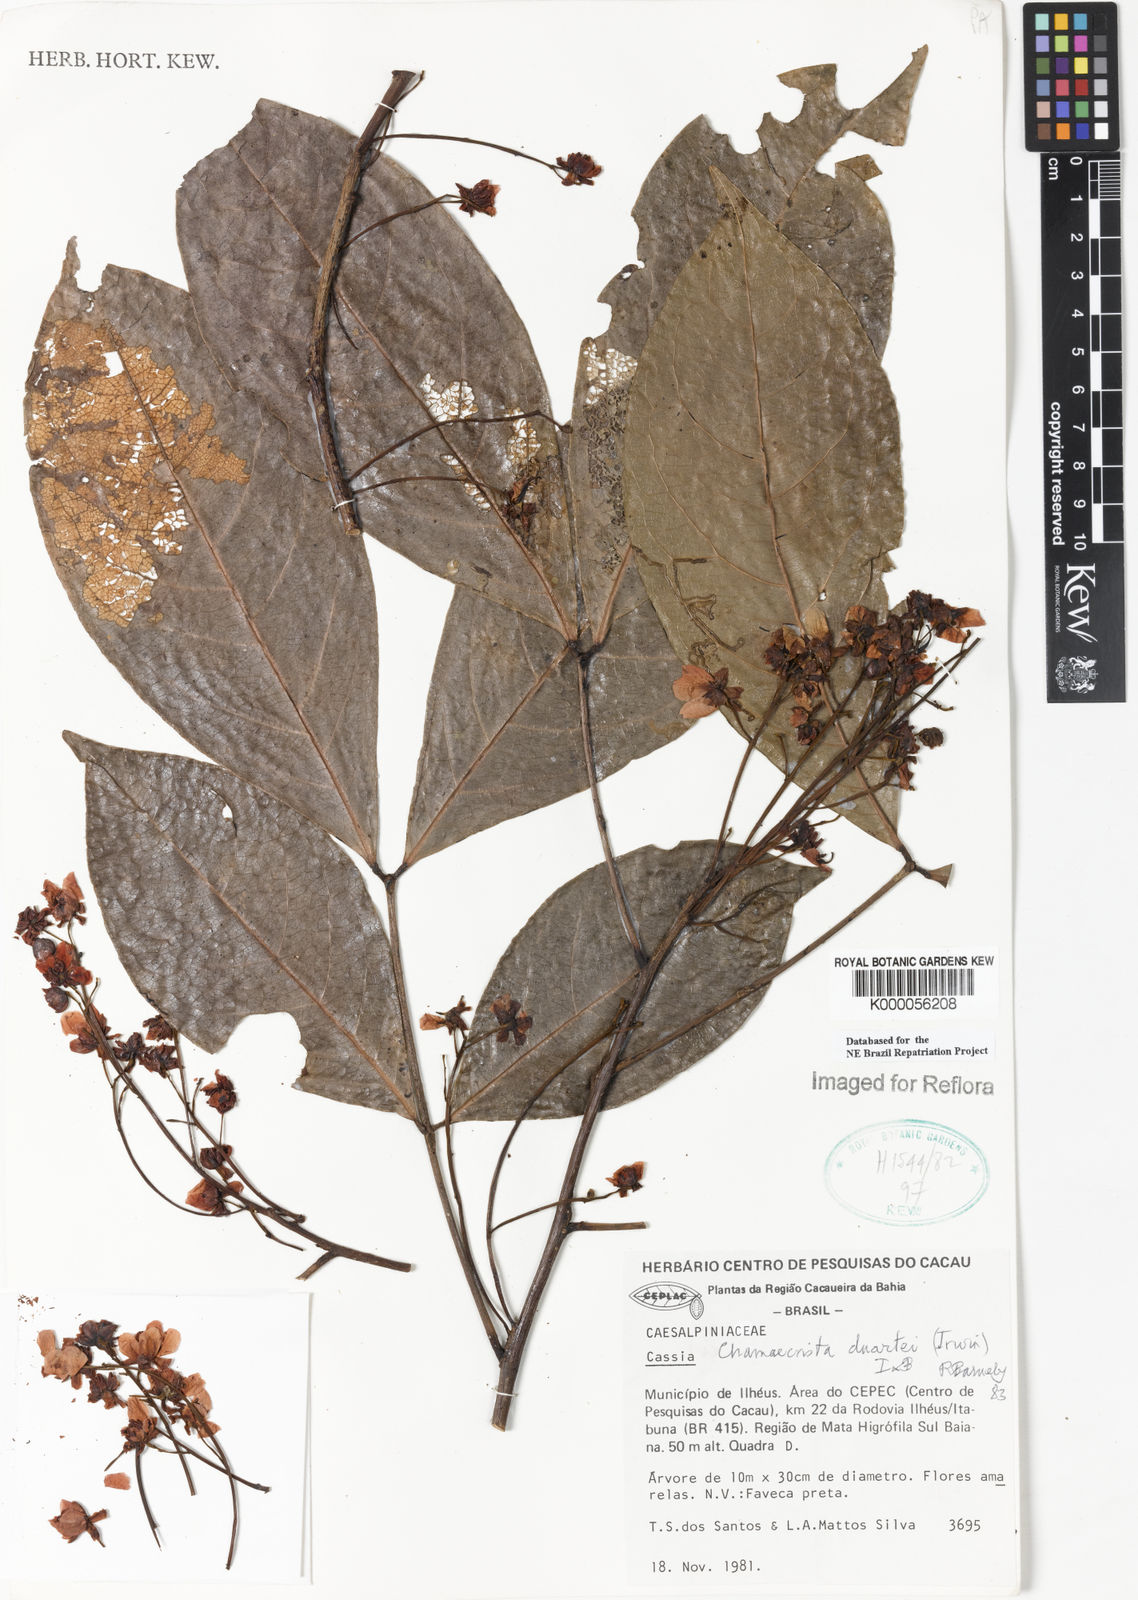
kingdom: Plantae
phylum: Tracheophyta
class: Magnoliopsida
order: Fabales
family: Fabaceae
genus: Chamaecrista
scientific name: Chamaecrista duartei
